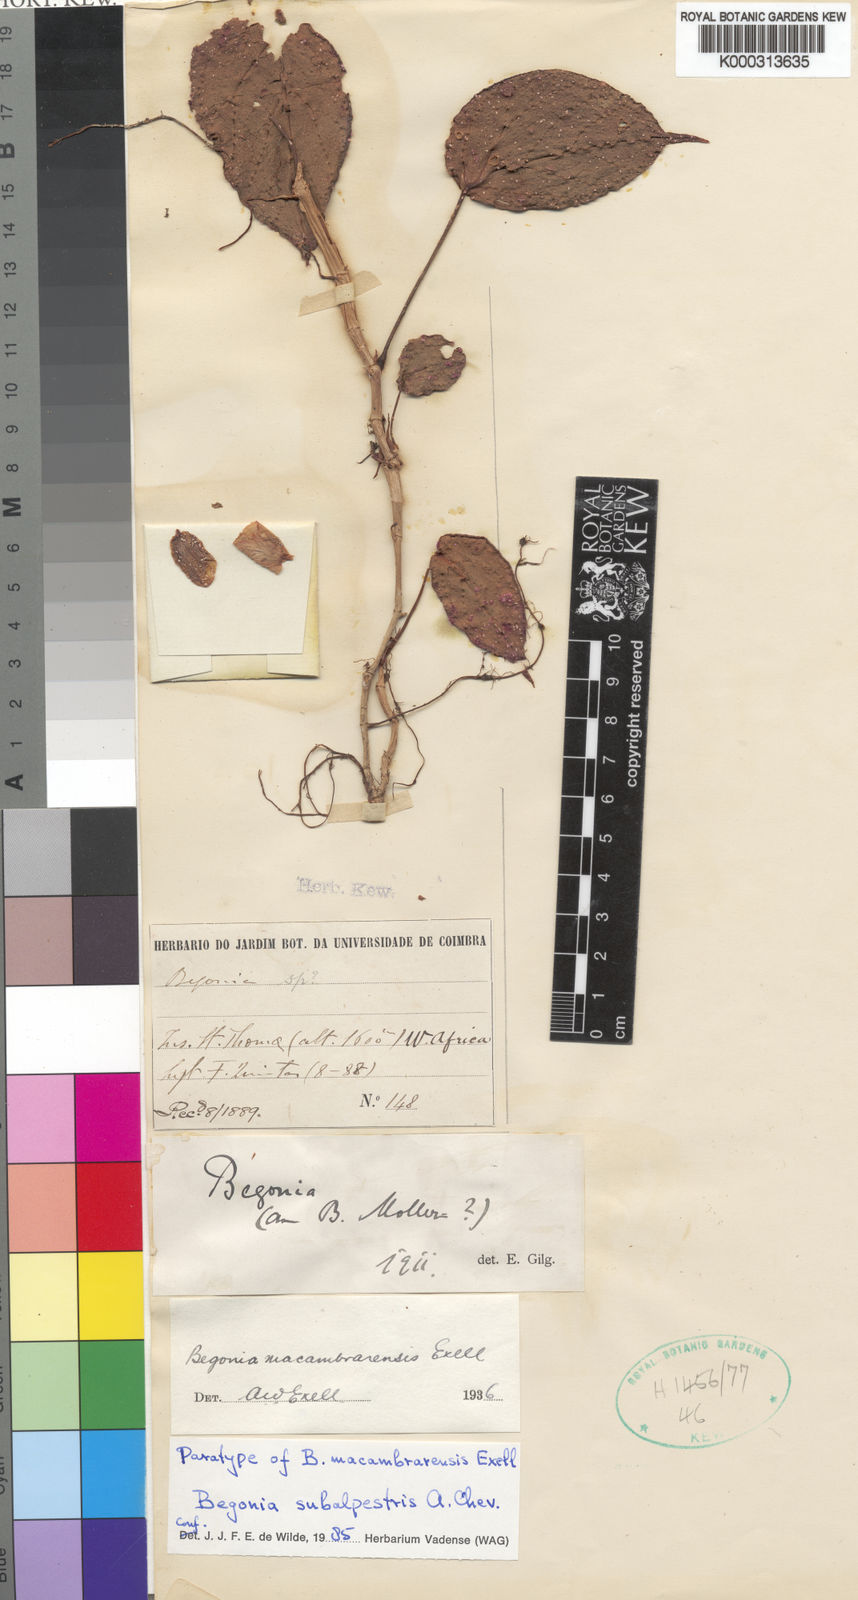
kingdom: Plantae
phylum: Tracheophyta
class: Magnoliopsida
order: Cucurbitales
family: Begoniaceae
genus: Begonia
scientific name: Begonia subalpestris
